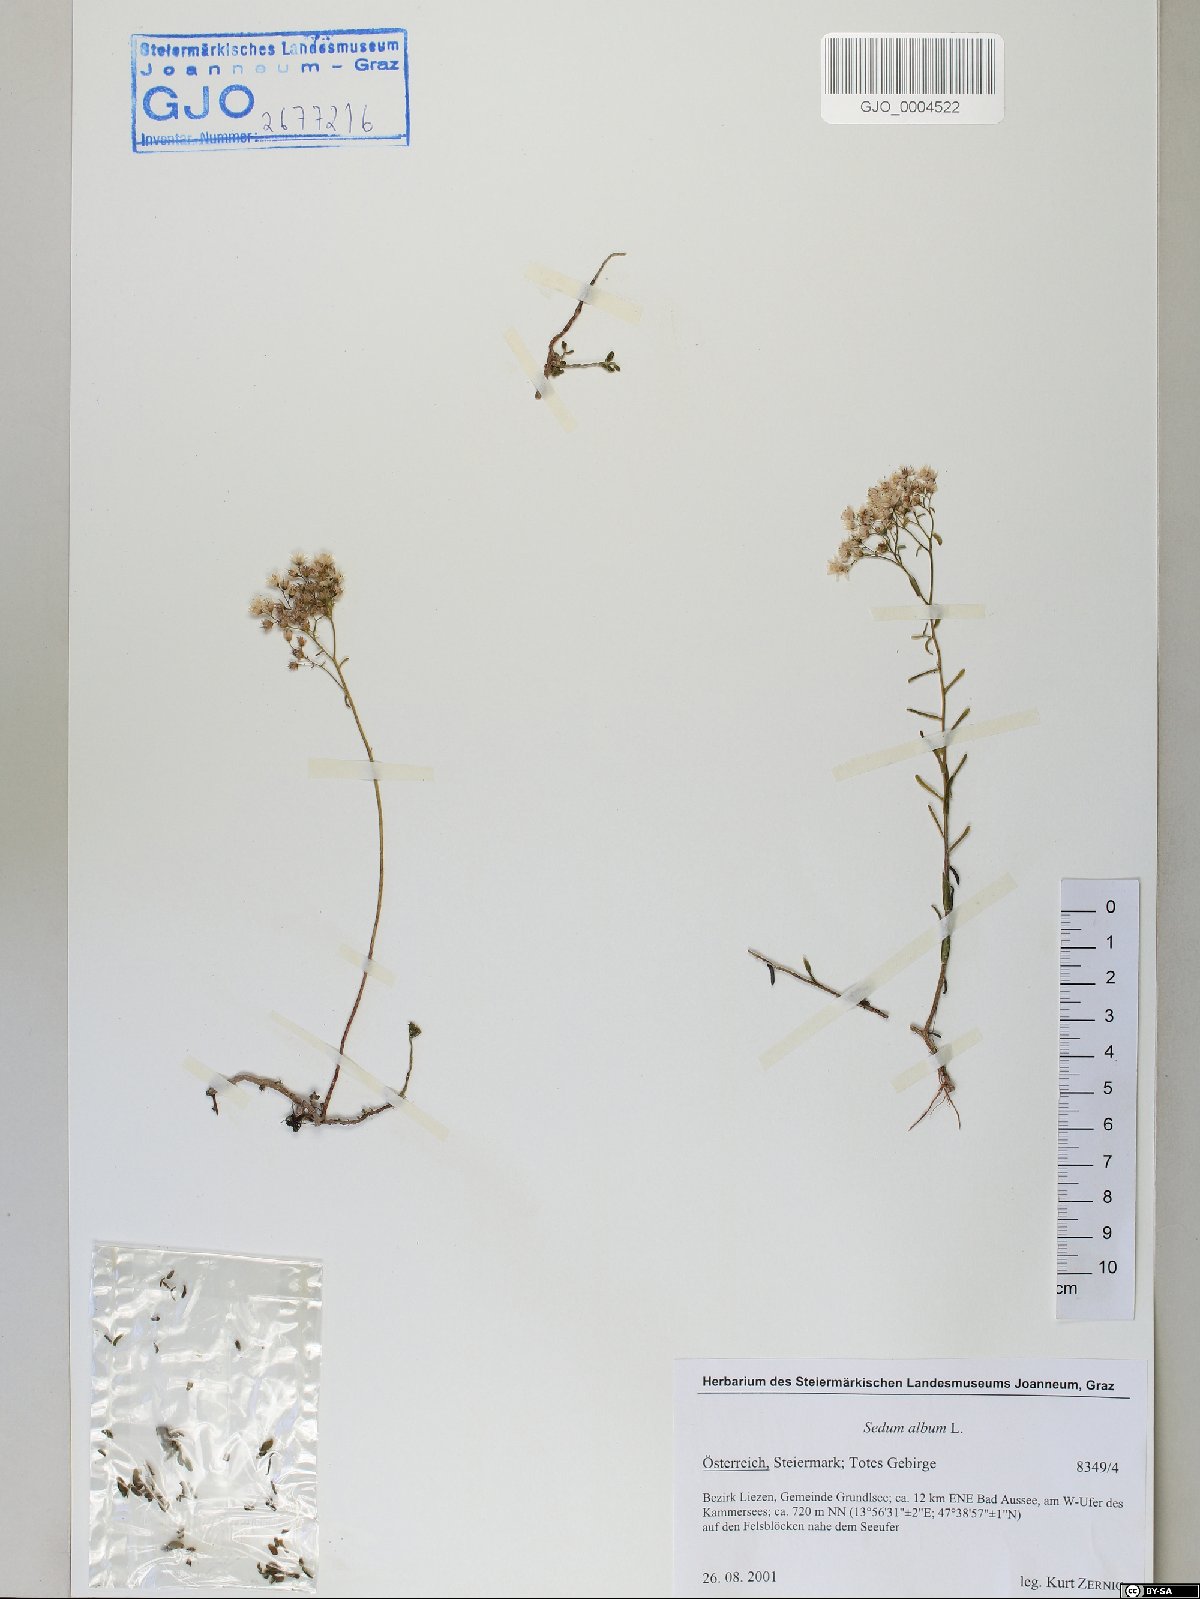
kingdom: Plantae
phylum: Tracheophyta
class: Magnoliopsida
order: Saxifragales
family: Crassulaceae
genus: Sedum
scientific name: Sedum album
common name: White stonecrop
